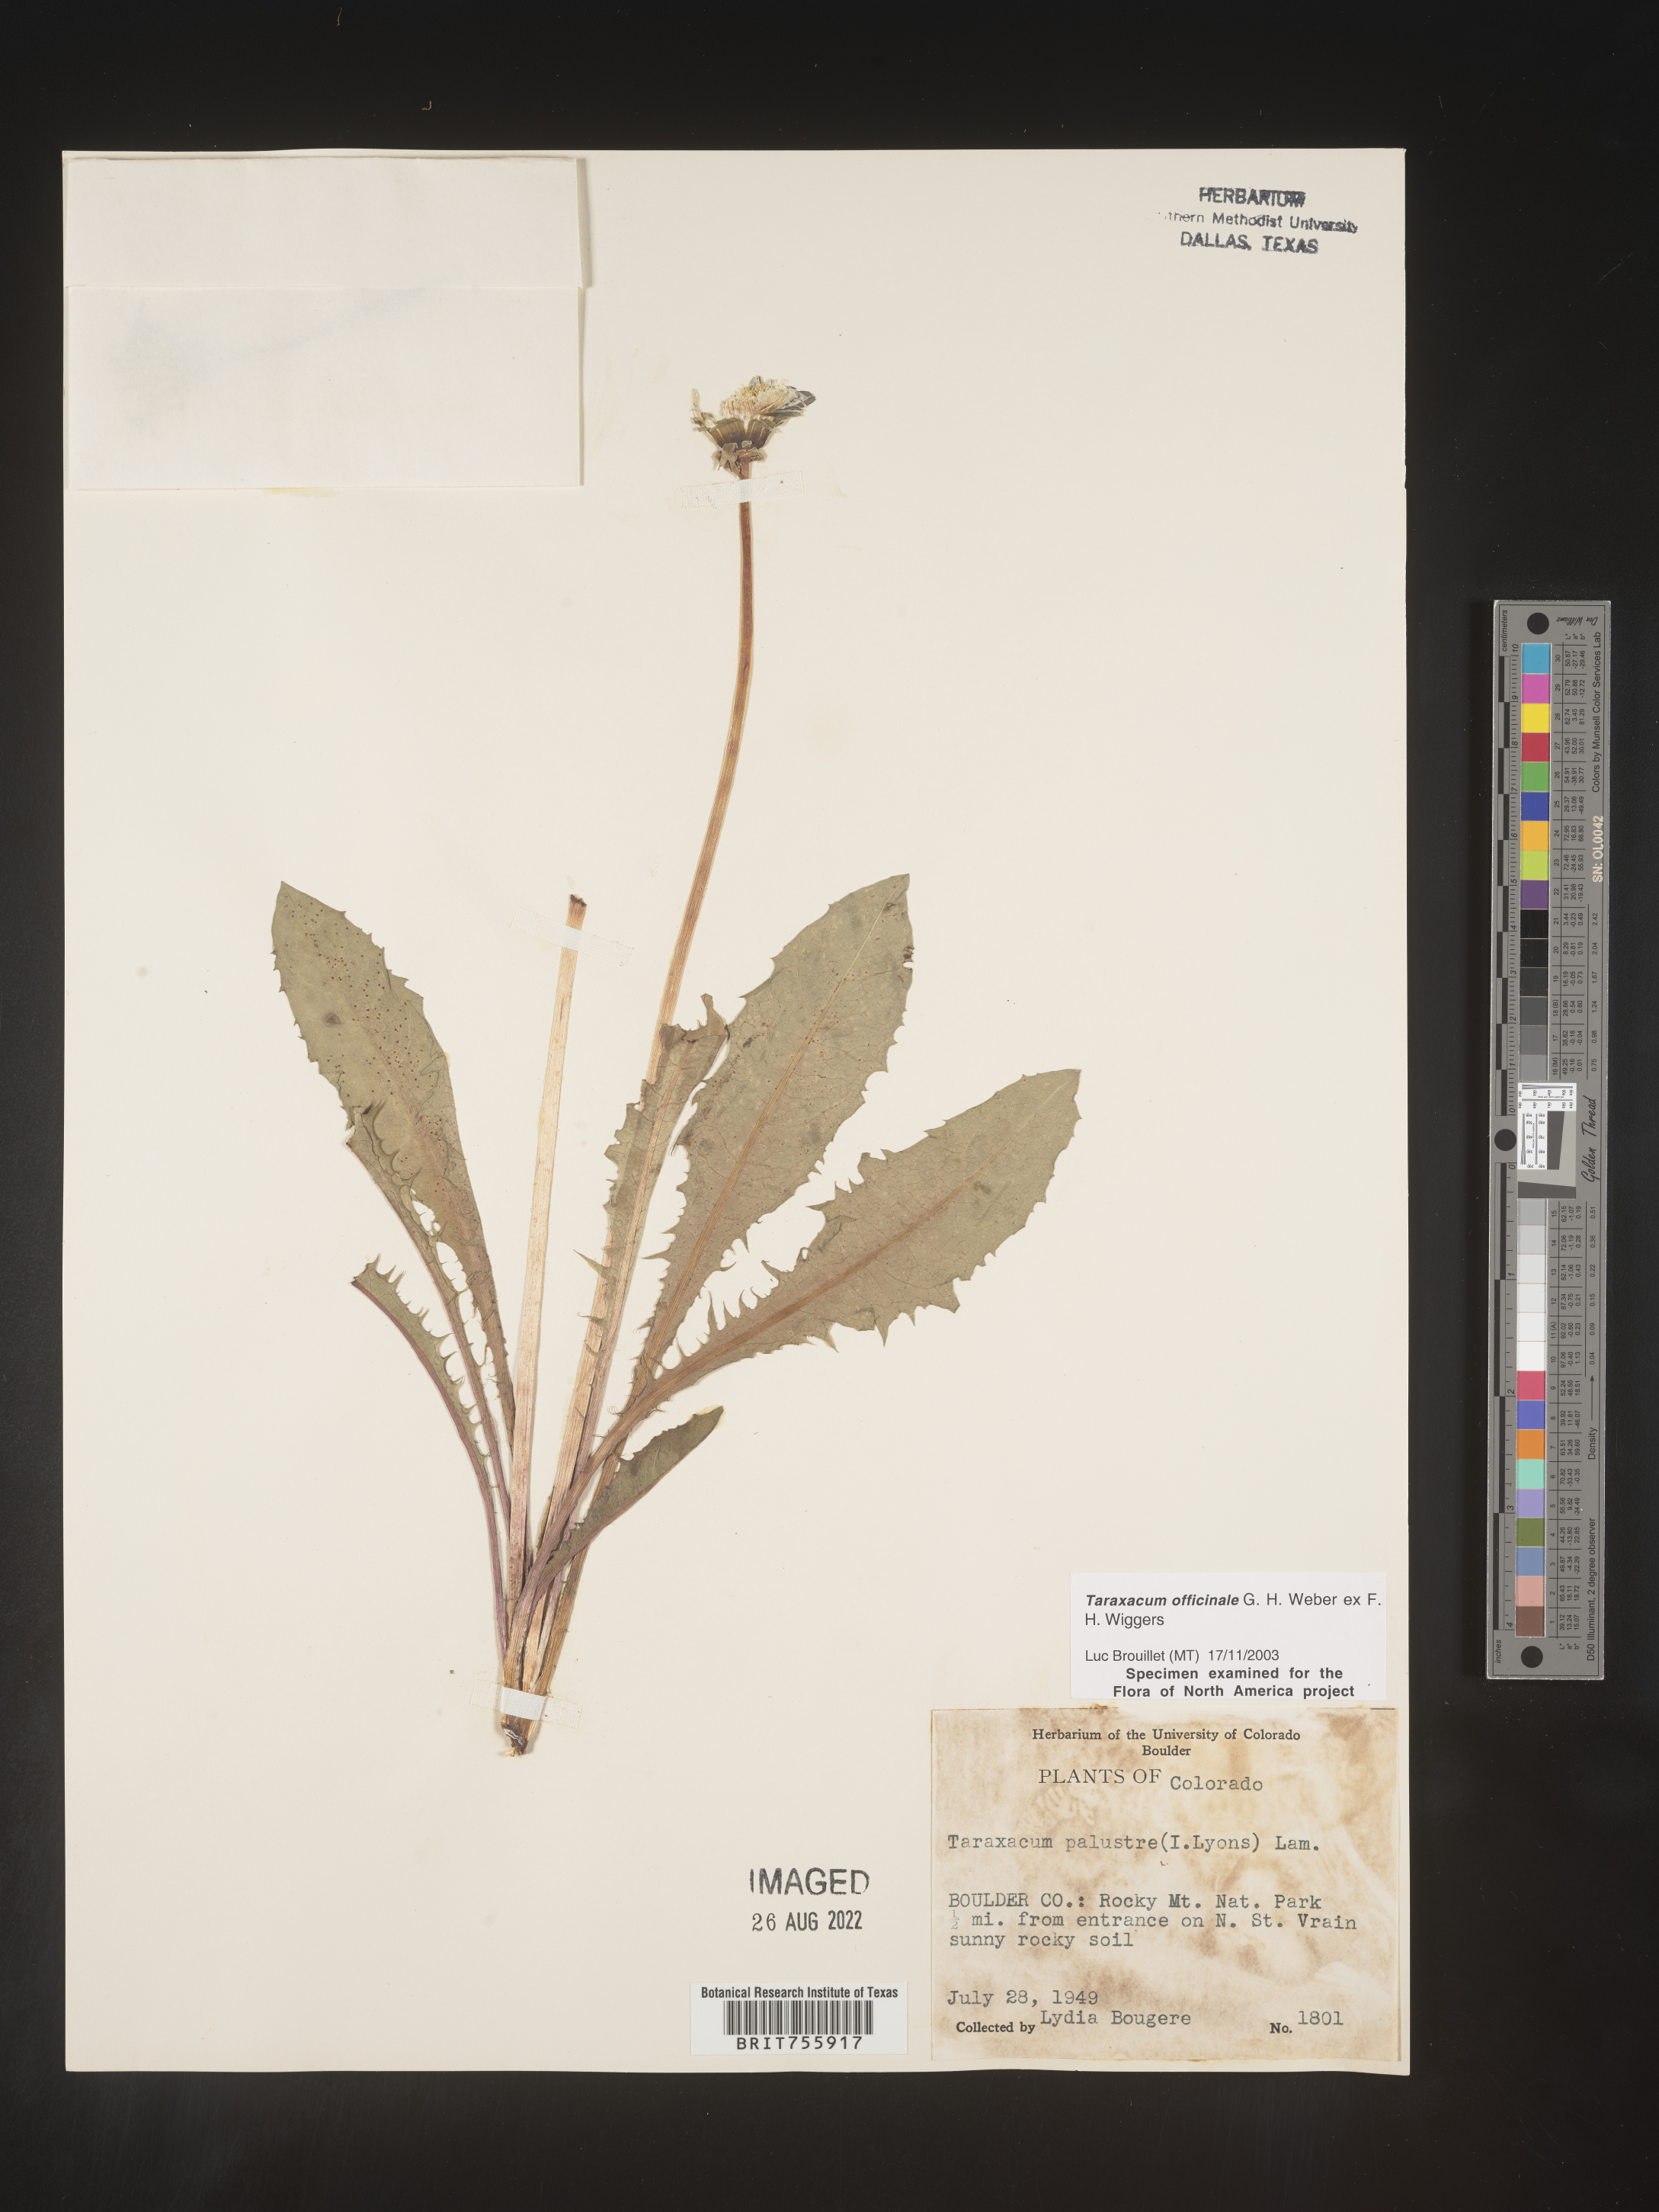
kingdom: Plantae
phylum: Tracheophyta
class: Magnoliopsida
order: Asterales
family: Asteraceae
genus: Taraxacum
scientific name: Taraxacum officinale
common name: Common dandelion
